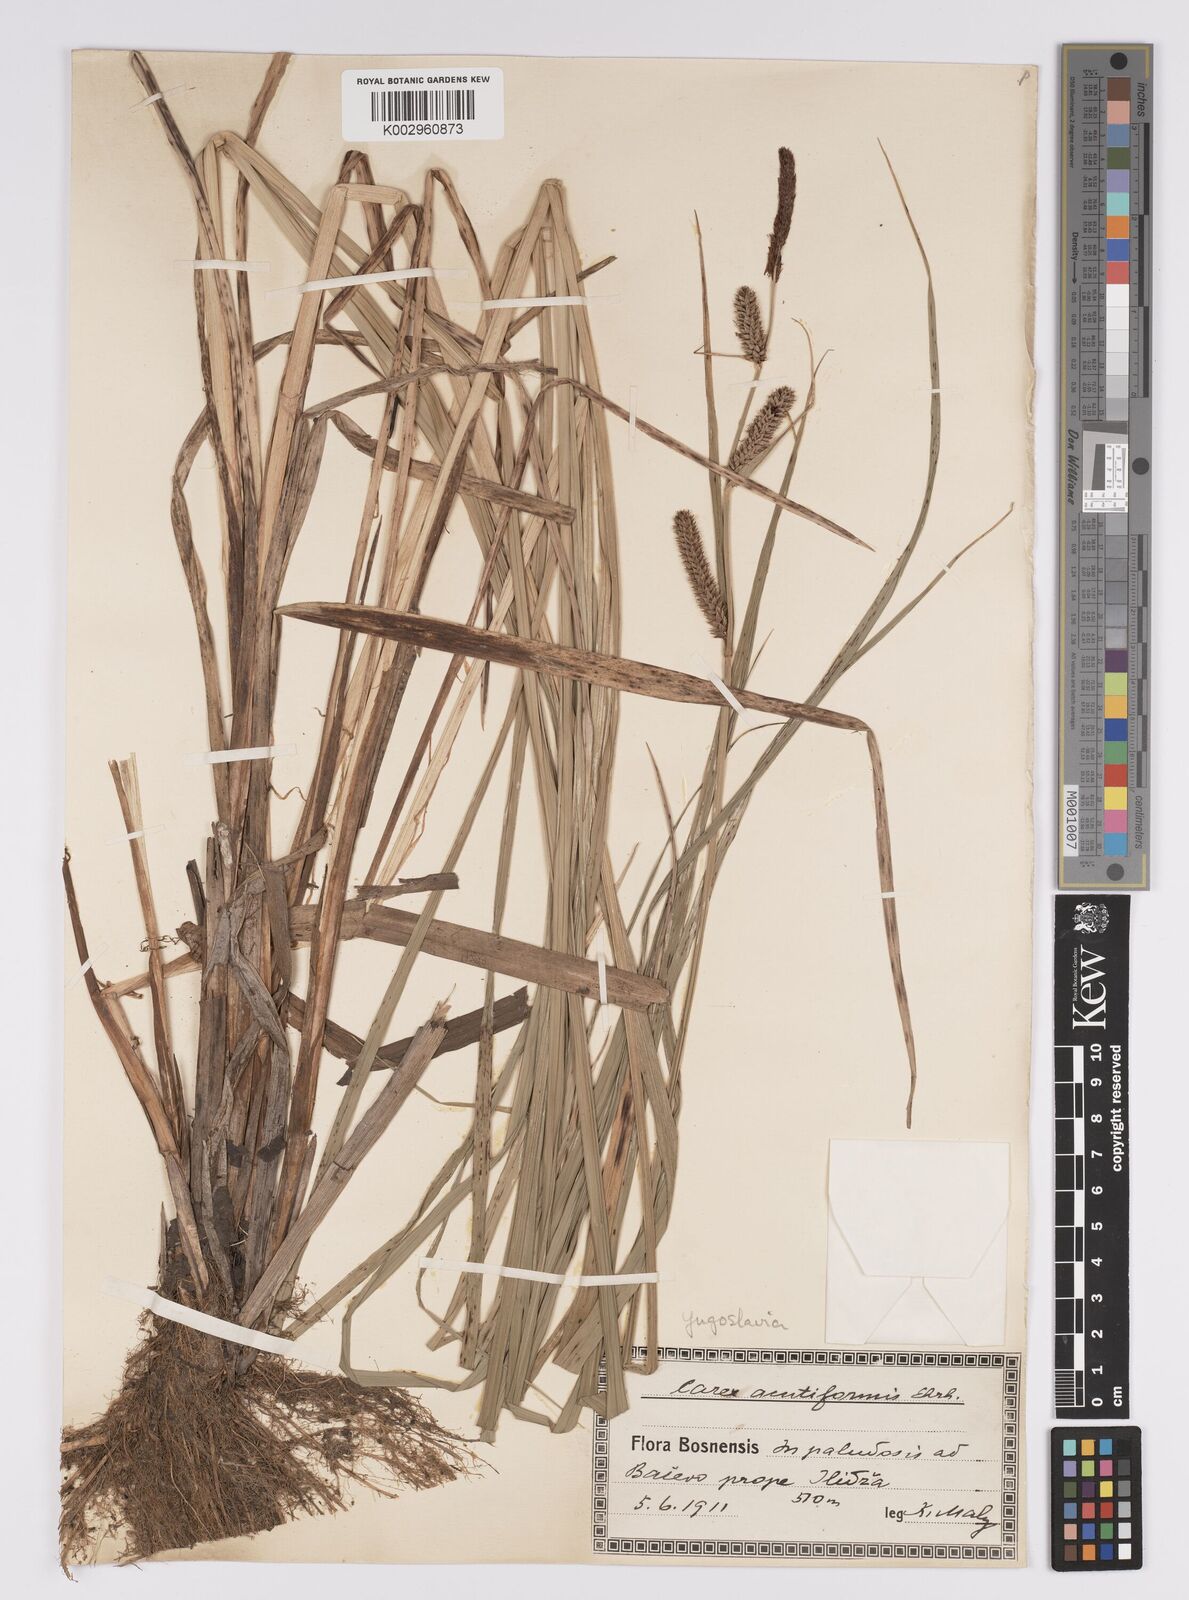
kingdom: Plantae
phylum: Tracheophyta
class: Liliopsida
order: Poales
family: Cyperaceae
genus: Carex
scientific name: Carex acutiformis
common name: Lesser pond-sedge
